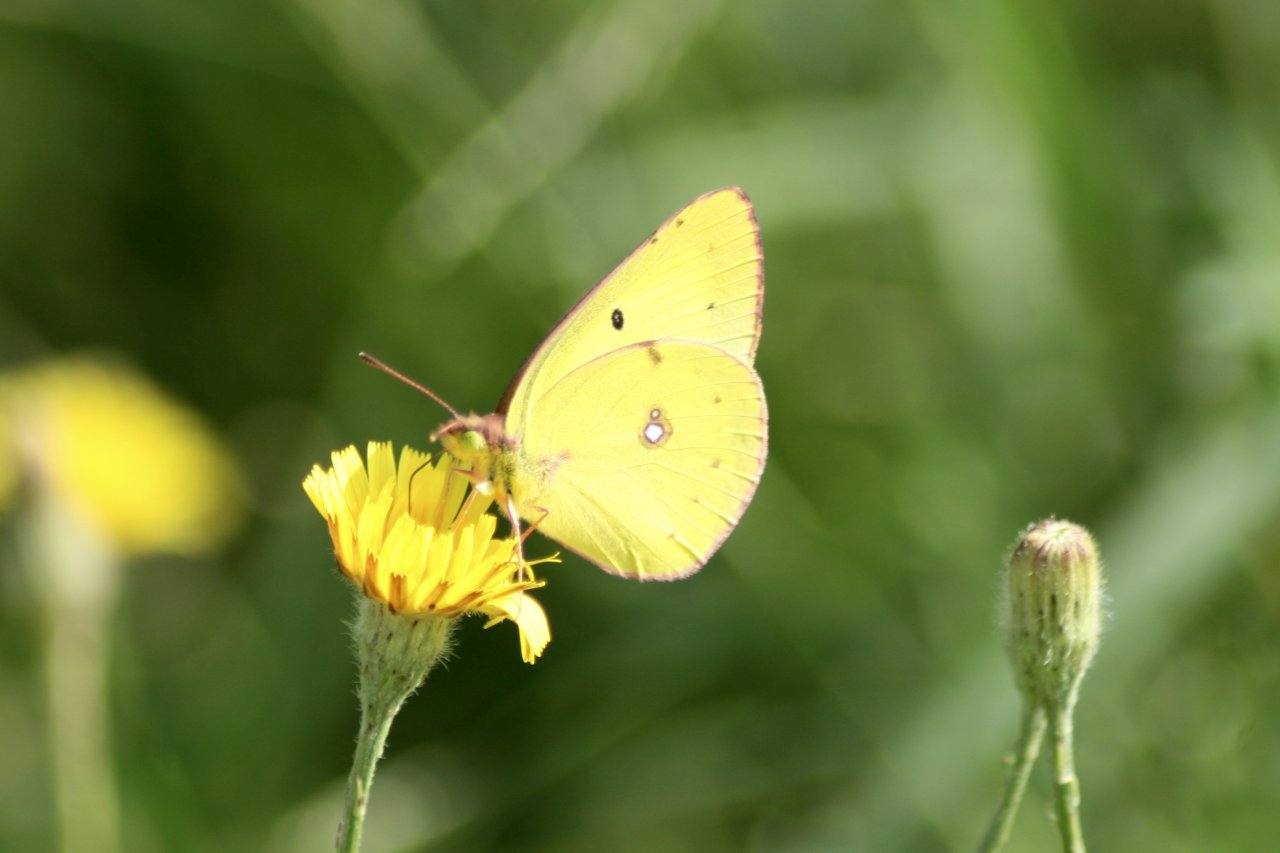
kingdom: Animalia
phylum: Arthropoda
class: Insecta
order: Lepidoptera
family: Pieridae
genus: Colias
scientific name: Colias philodice
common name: Clouded Sulphur
